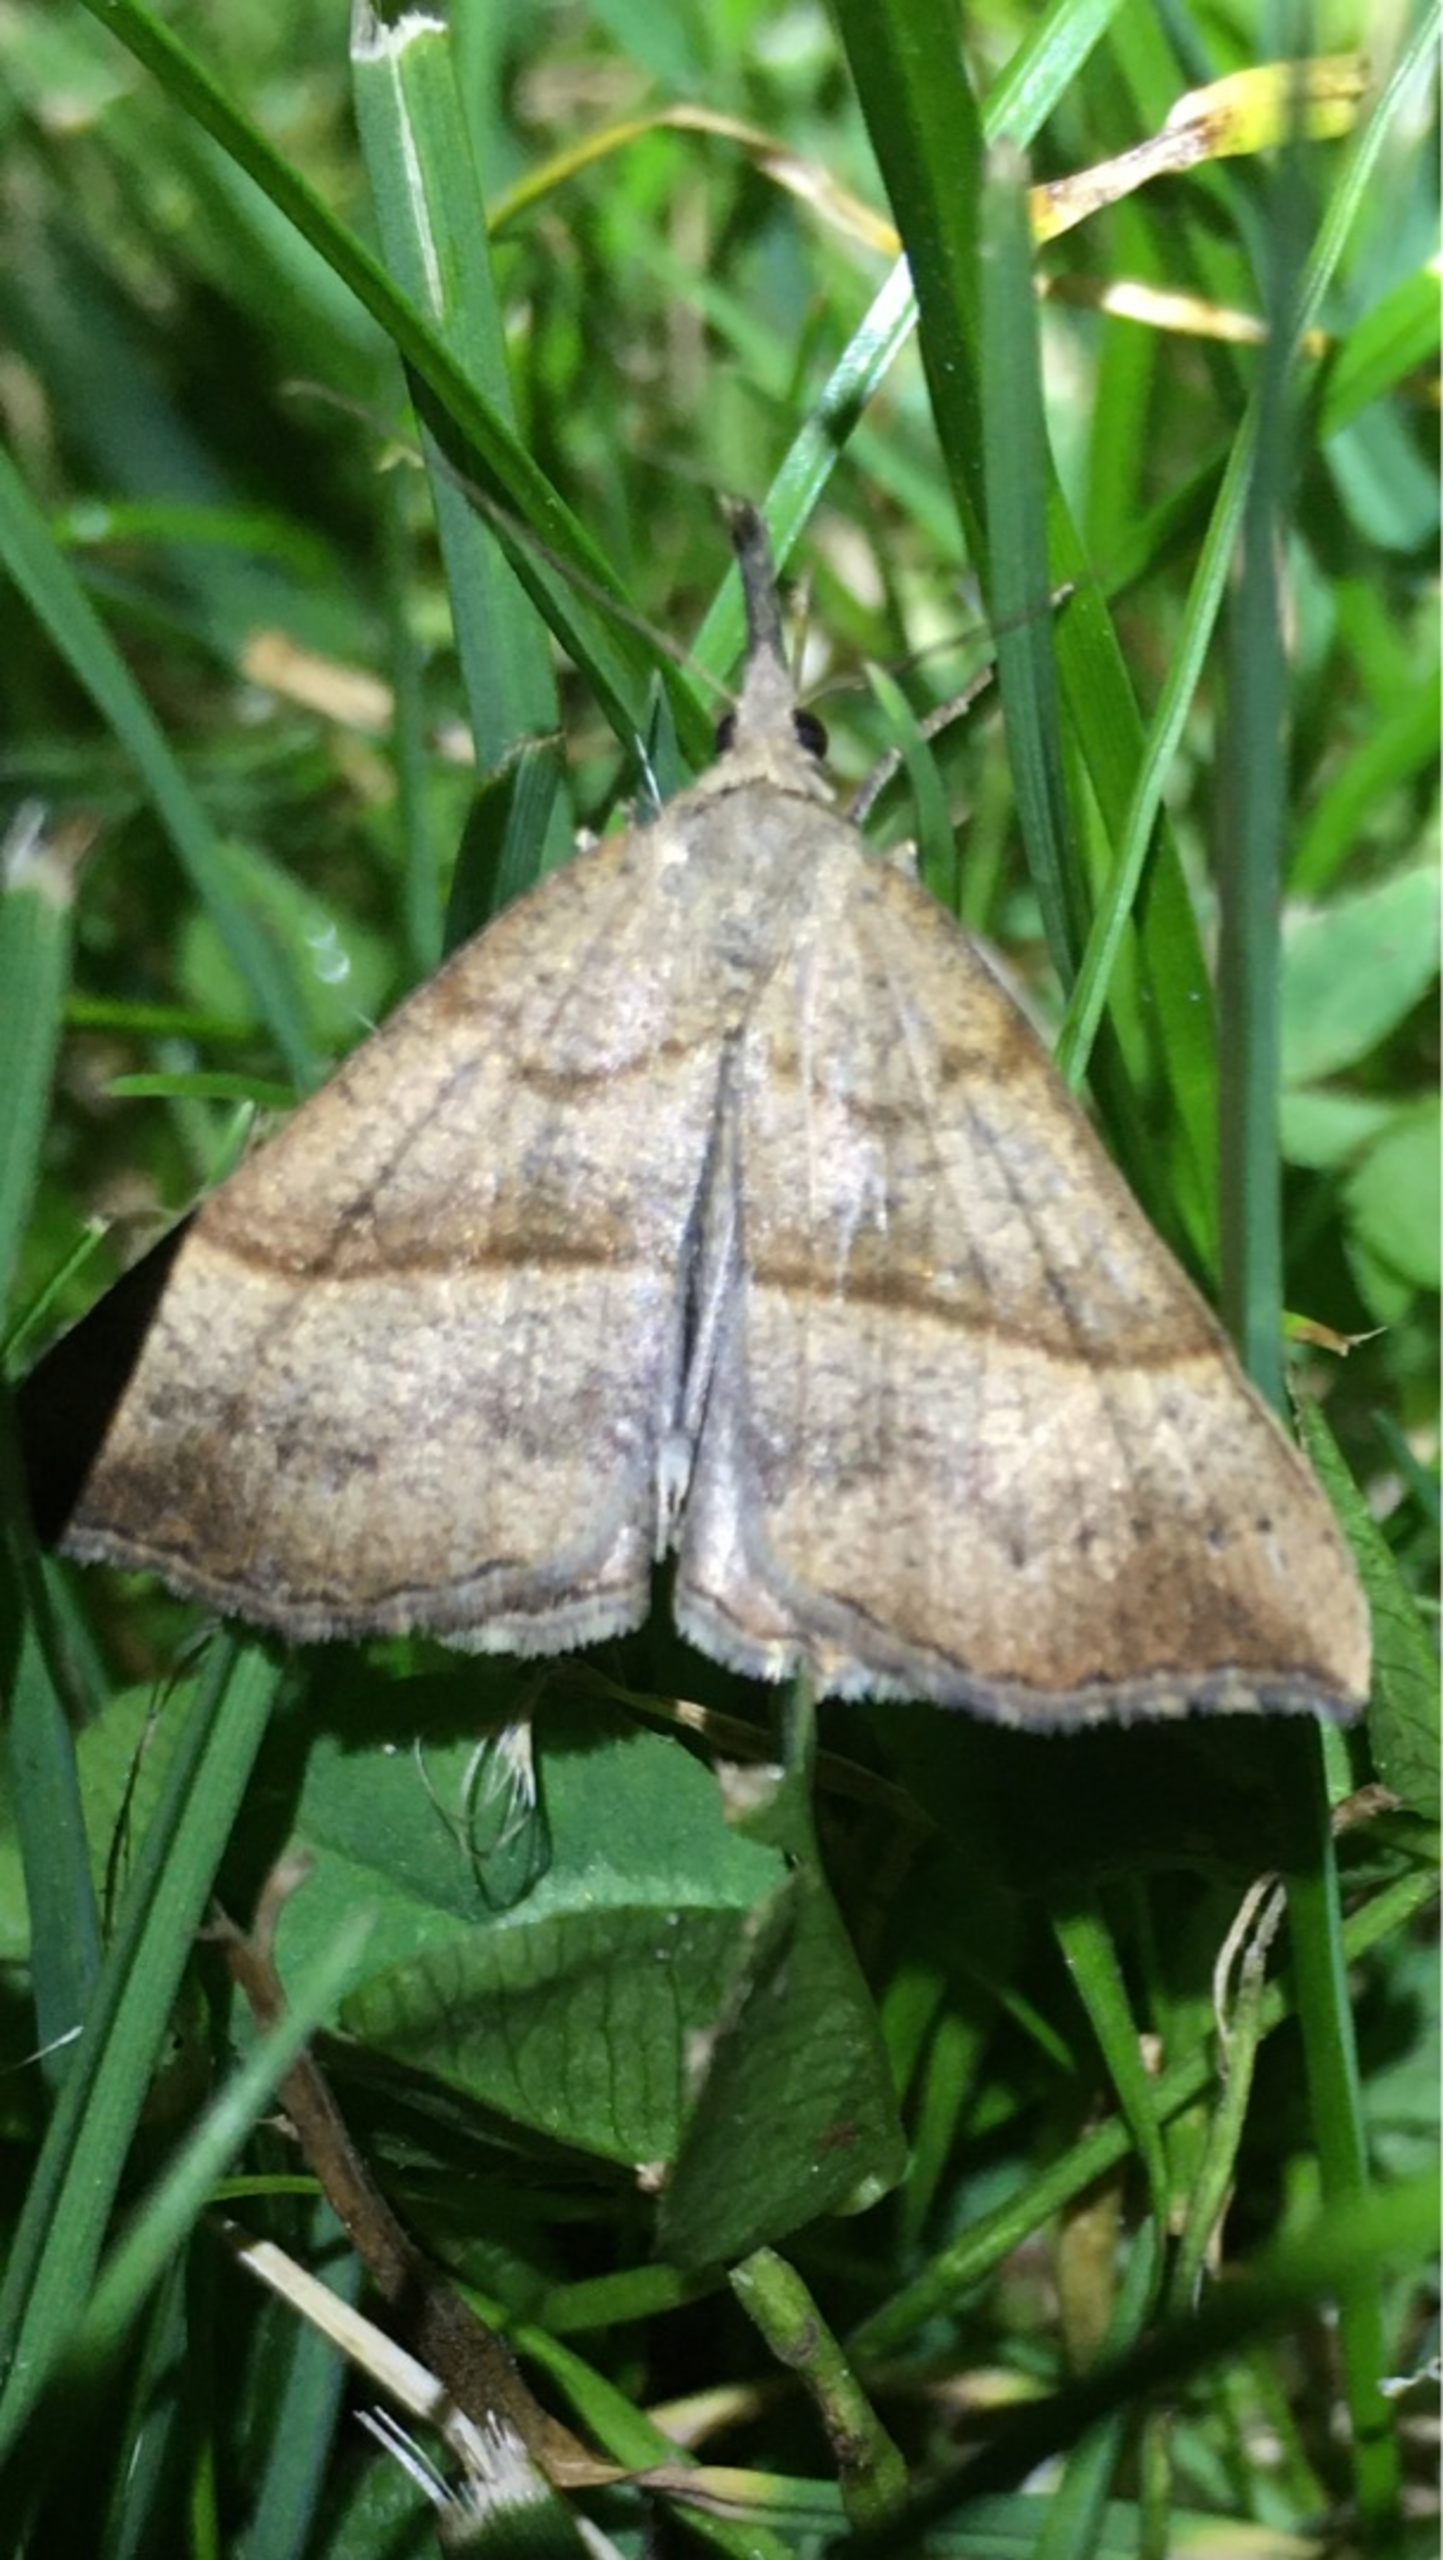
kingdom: Animalia
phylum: Arthropoda
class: Insecta
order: Lepidoptera
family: Erebidae
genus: Hypena
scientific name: Hypena proboscidalis
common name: Snudeugle
